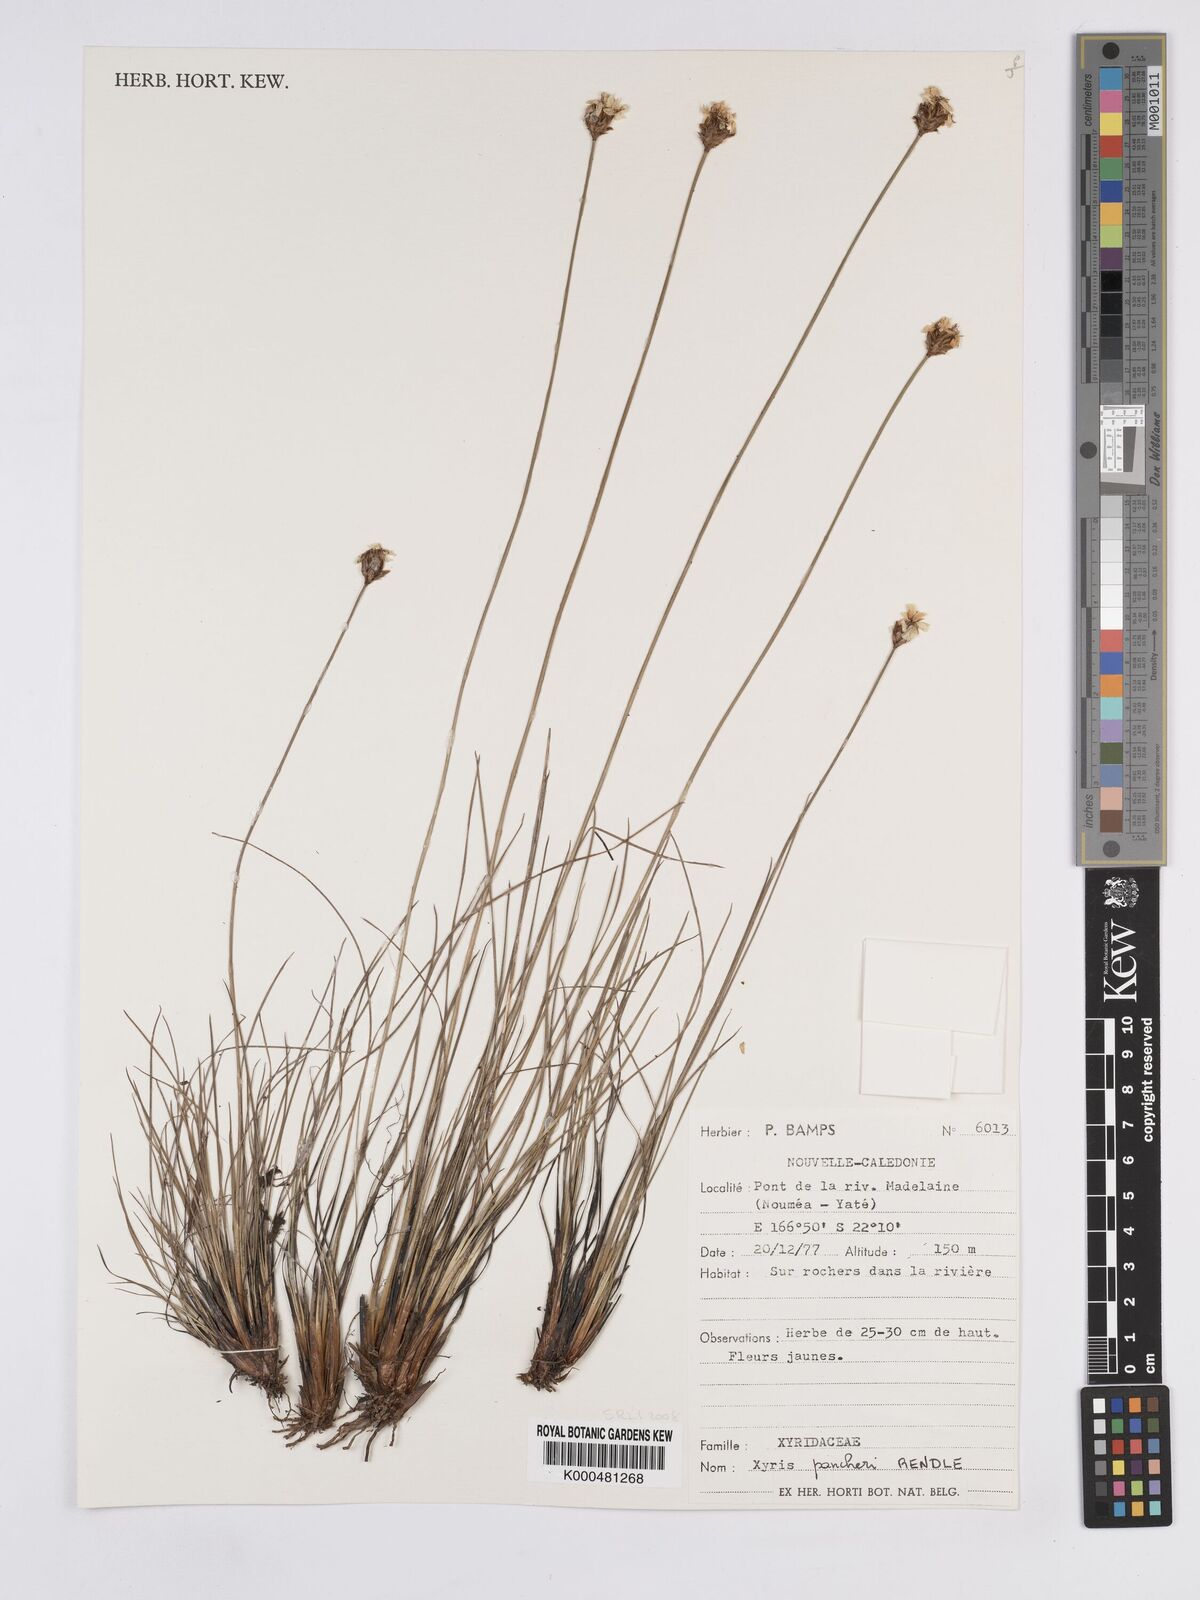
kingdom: Plantae
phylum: Tracheophyta
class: Liliopsida
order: Poales
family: Xyridaceae
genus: Xyris
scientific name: Xyris pancheri
